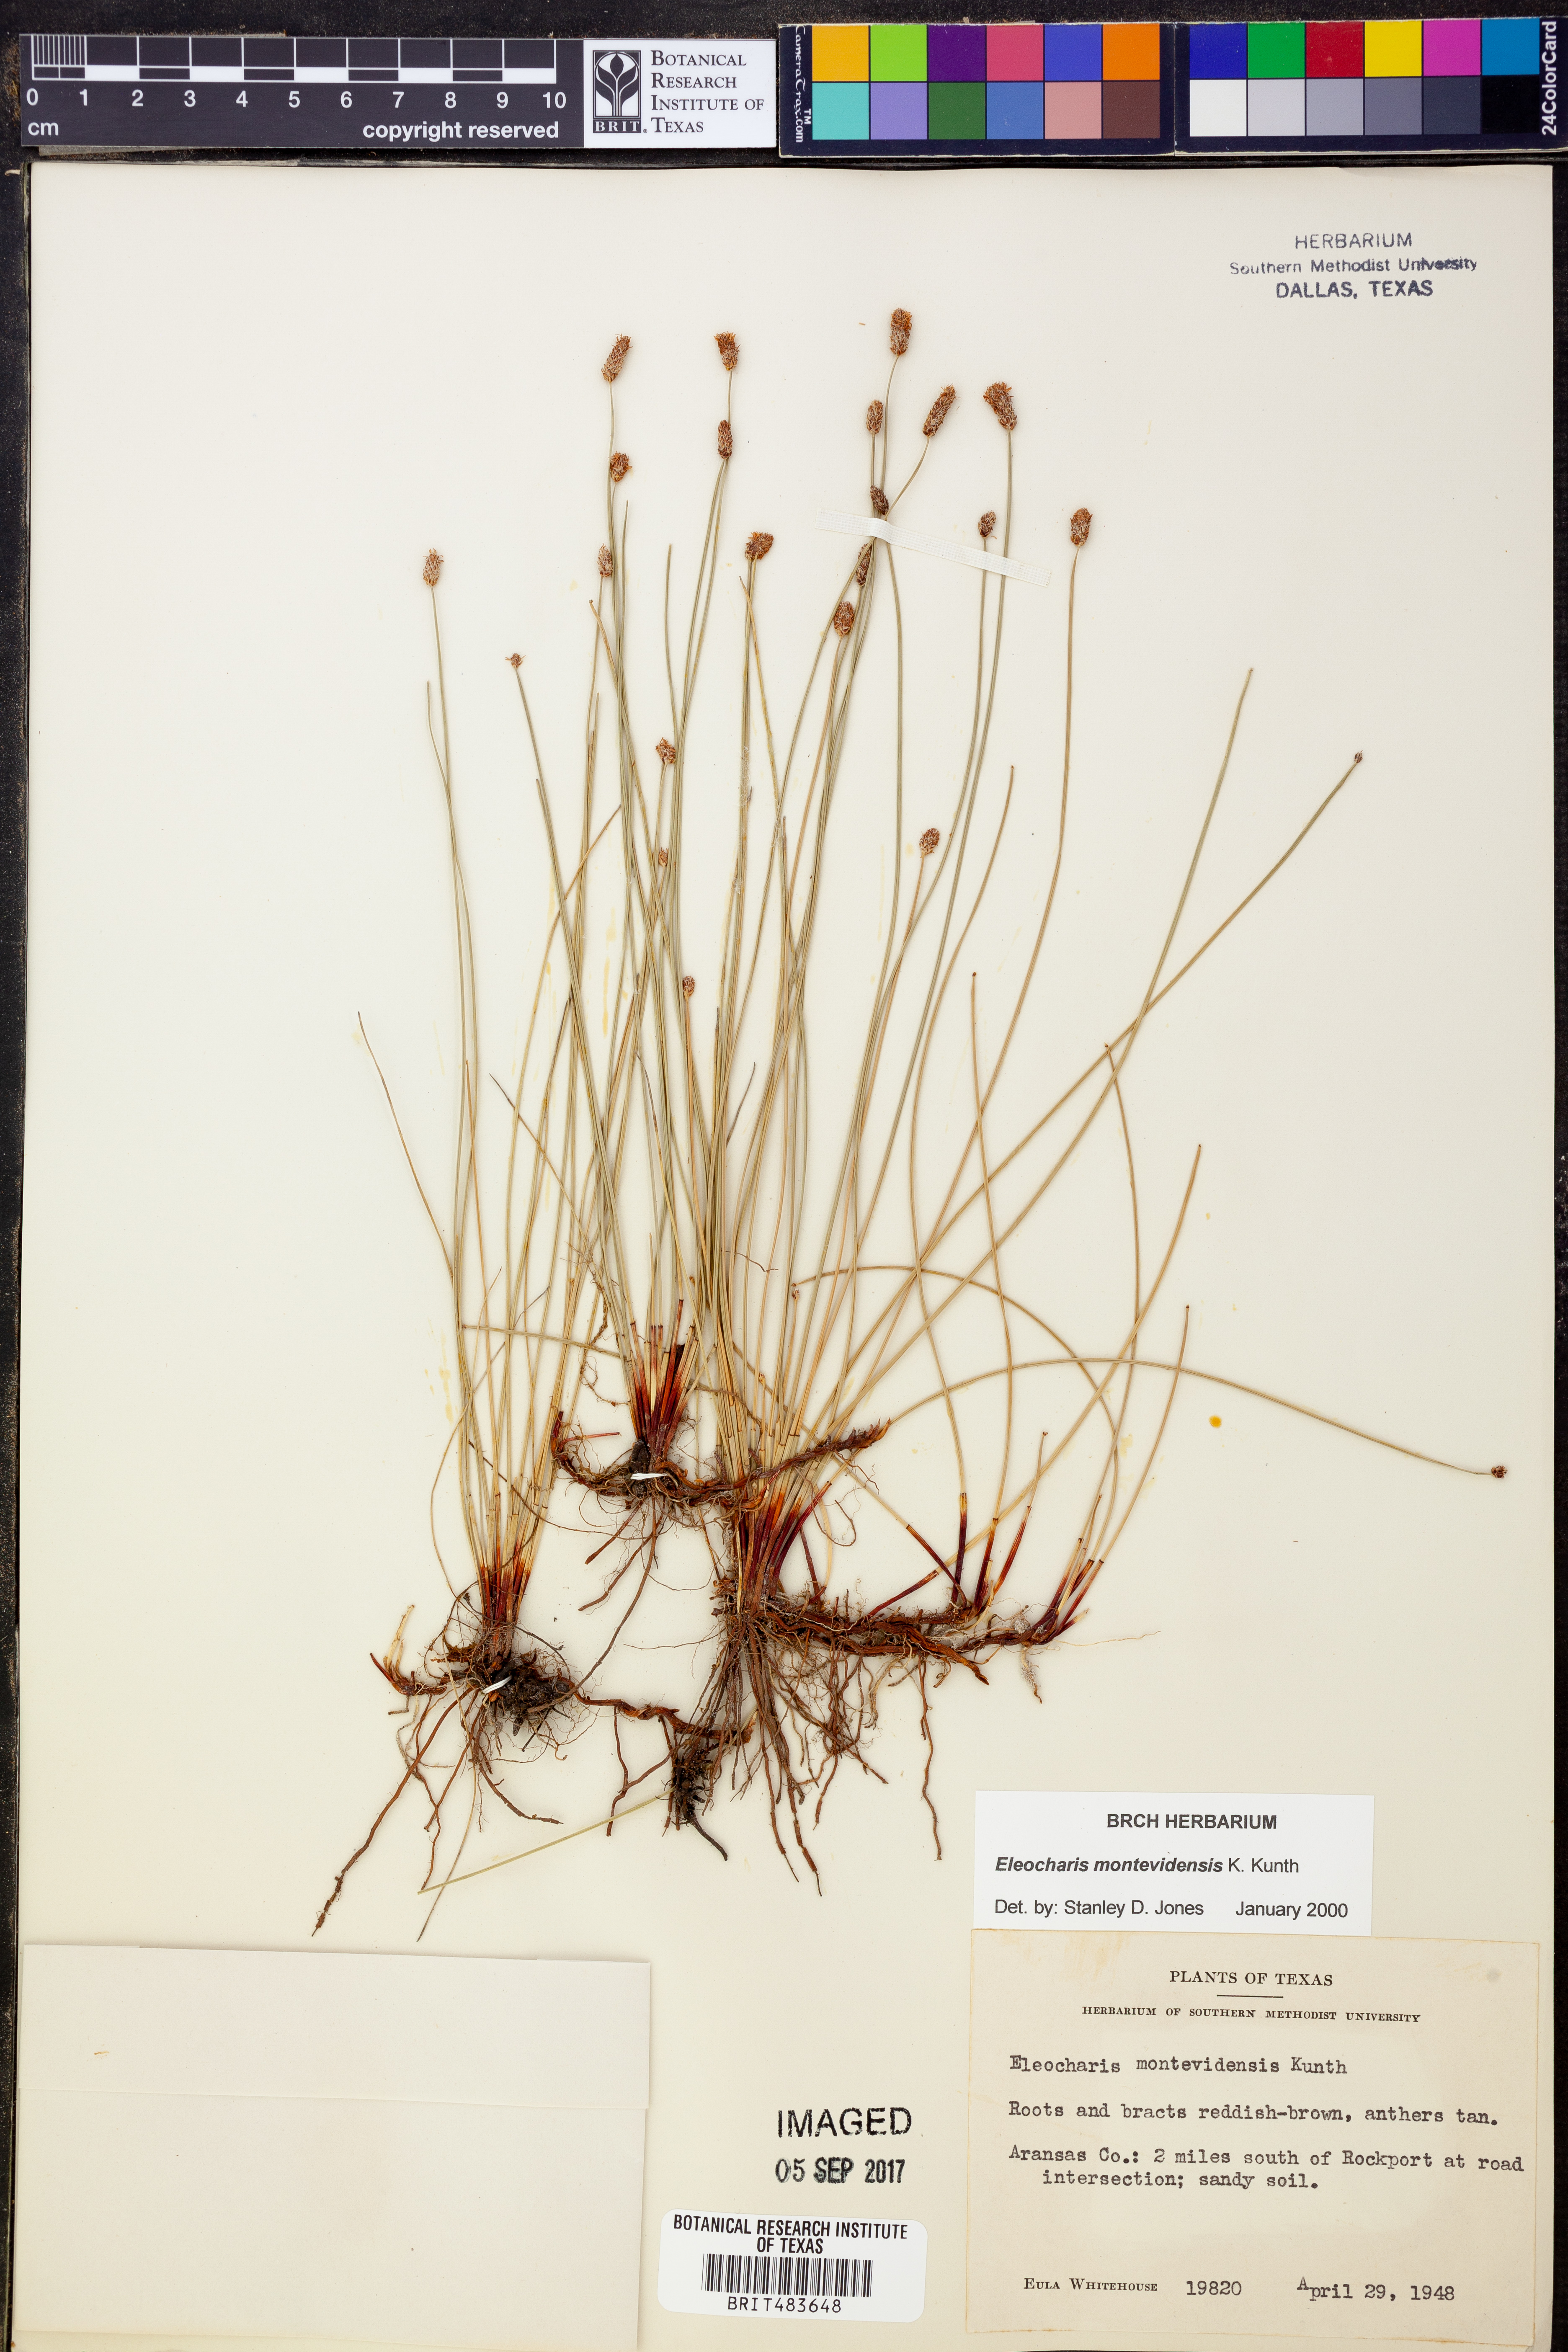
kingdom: Plantae
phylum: Tracheophyta
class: Liliopsida
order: Poales
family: Cyperaceae
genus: Eleocharis
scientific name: Eleocharis montevidensis
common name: Sand spike-rush
